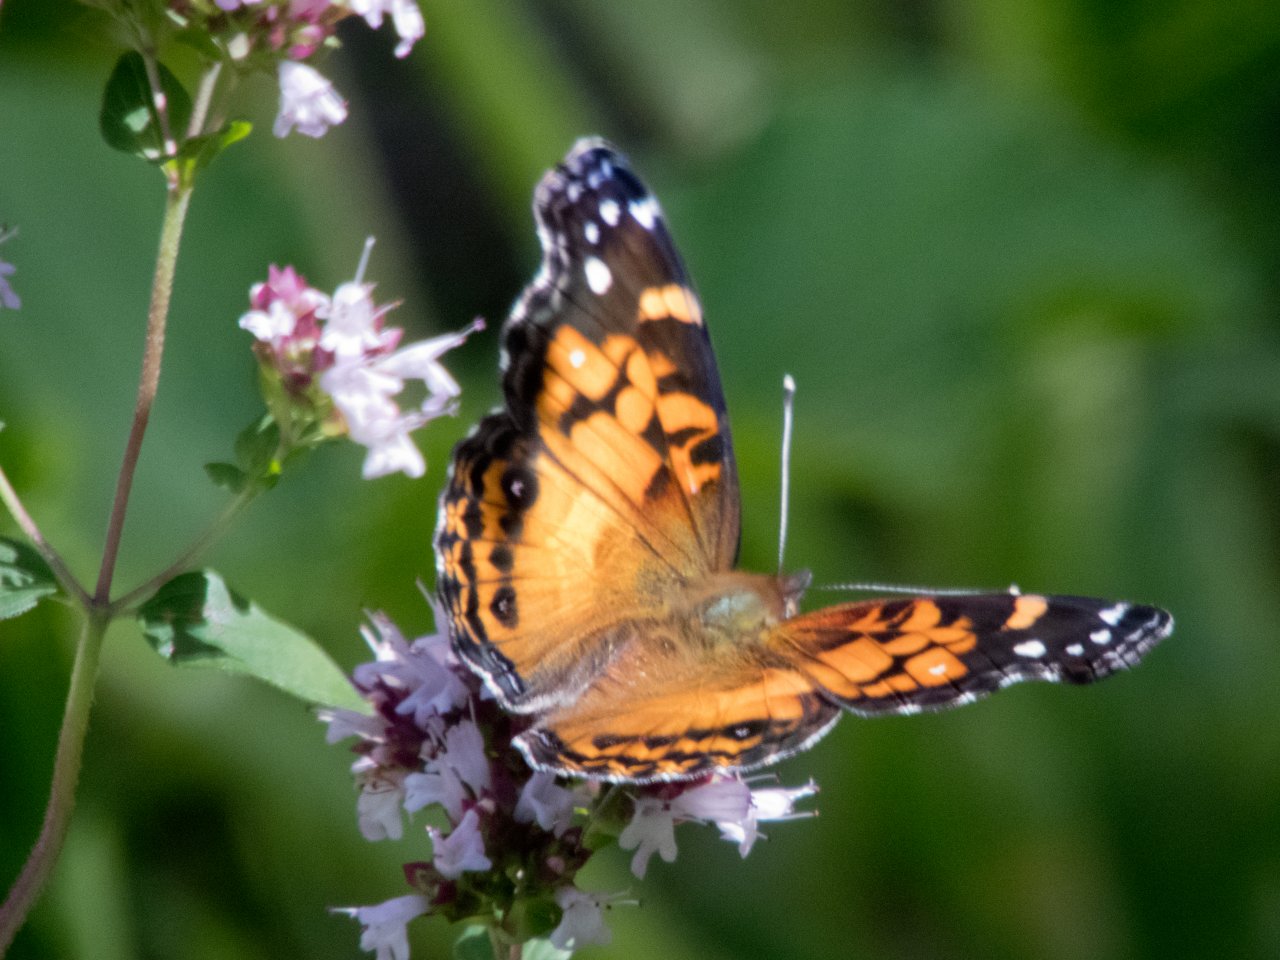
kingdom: Animalia
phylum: Arthropoda
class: Insecta
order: Lepidoptera
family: Nymphalidae
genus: Vanessa
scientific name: Vanessa virginiensis
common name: American Lady
